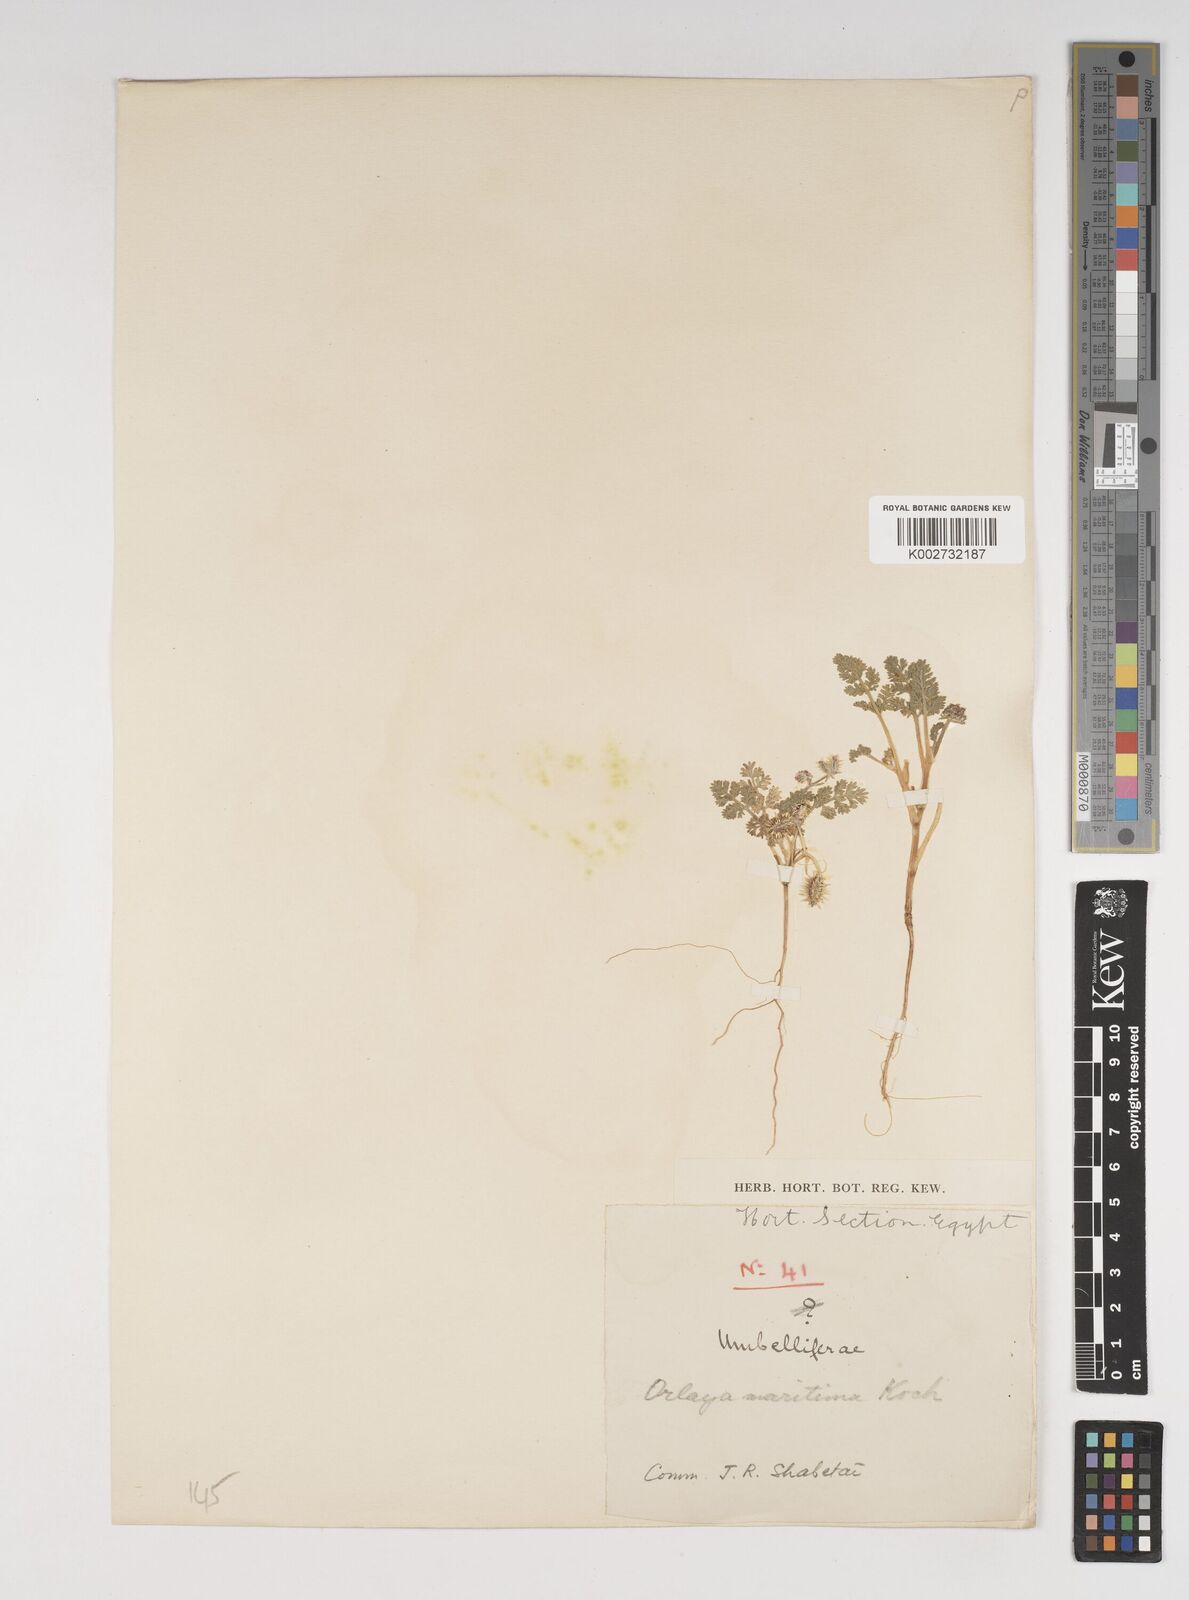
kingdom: Plantae
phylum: Tracheophyta
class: Magnoliopsida
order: Apiales
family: Apiaceae
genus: Daucus
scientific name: Daucus pumilus
